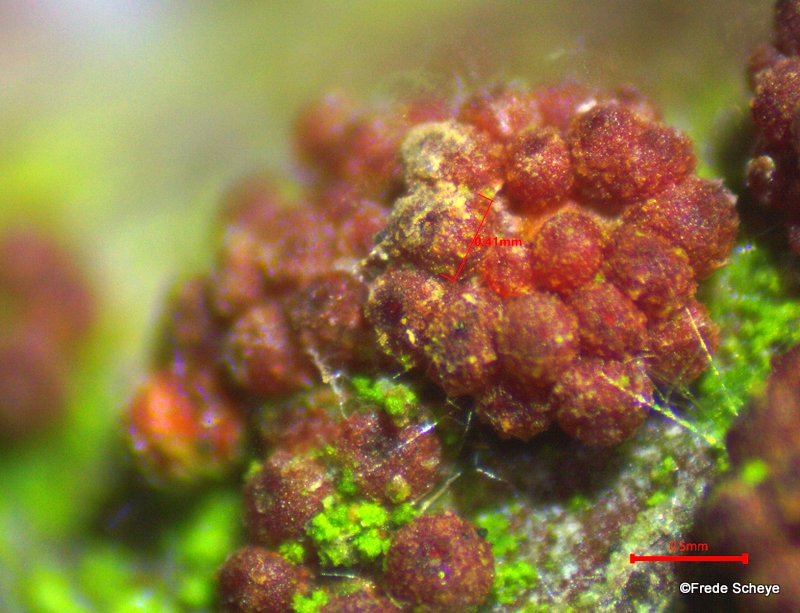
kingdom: Fungi
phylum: Ascomycota
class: Sordariomycetes
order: Hypocreales
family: Nectriaceae
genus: Nectria
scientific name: Nectria cinnabarina
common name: almindelig cinnobersvamp
